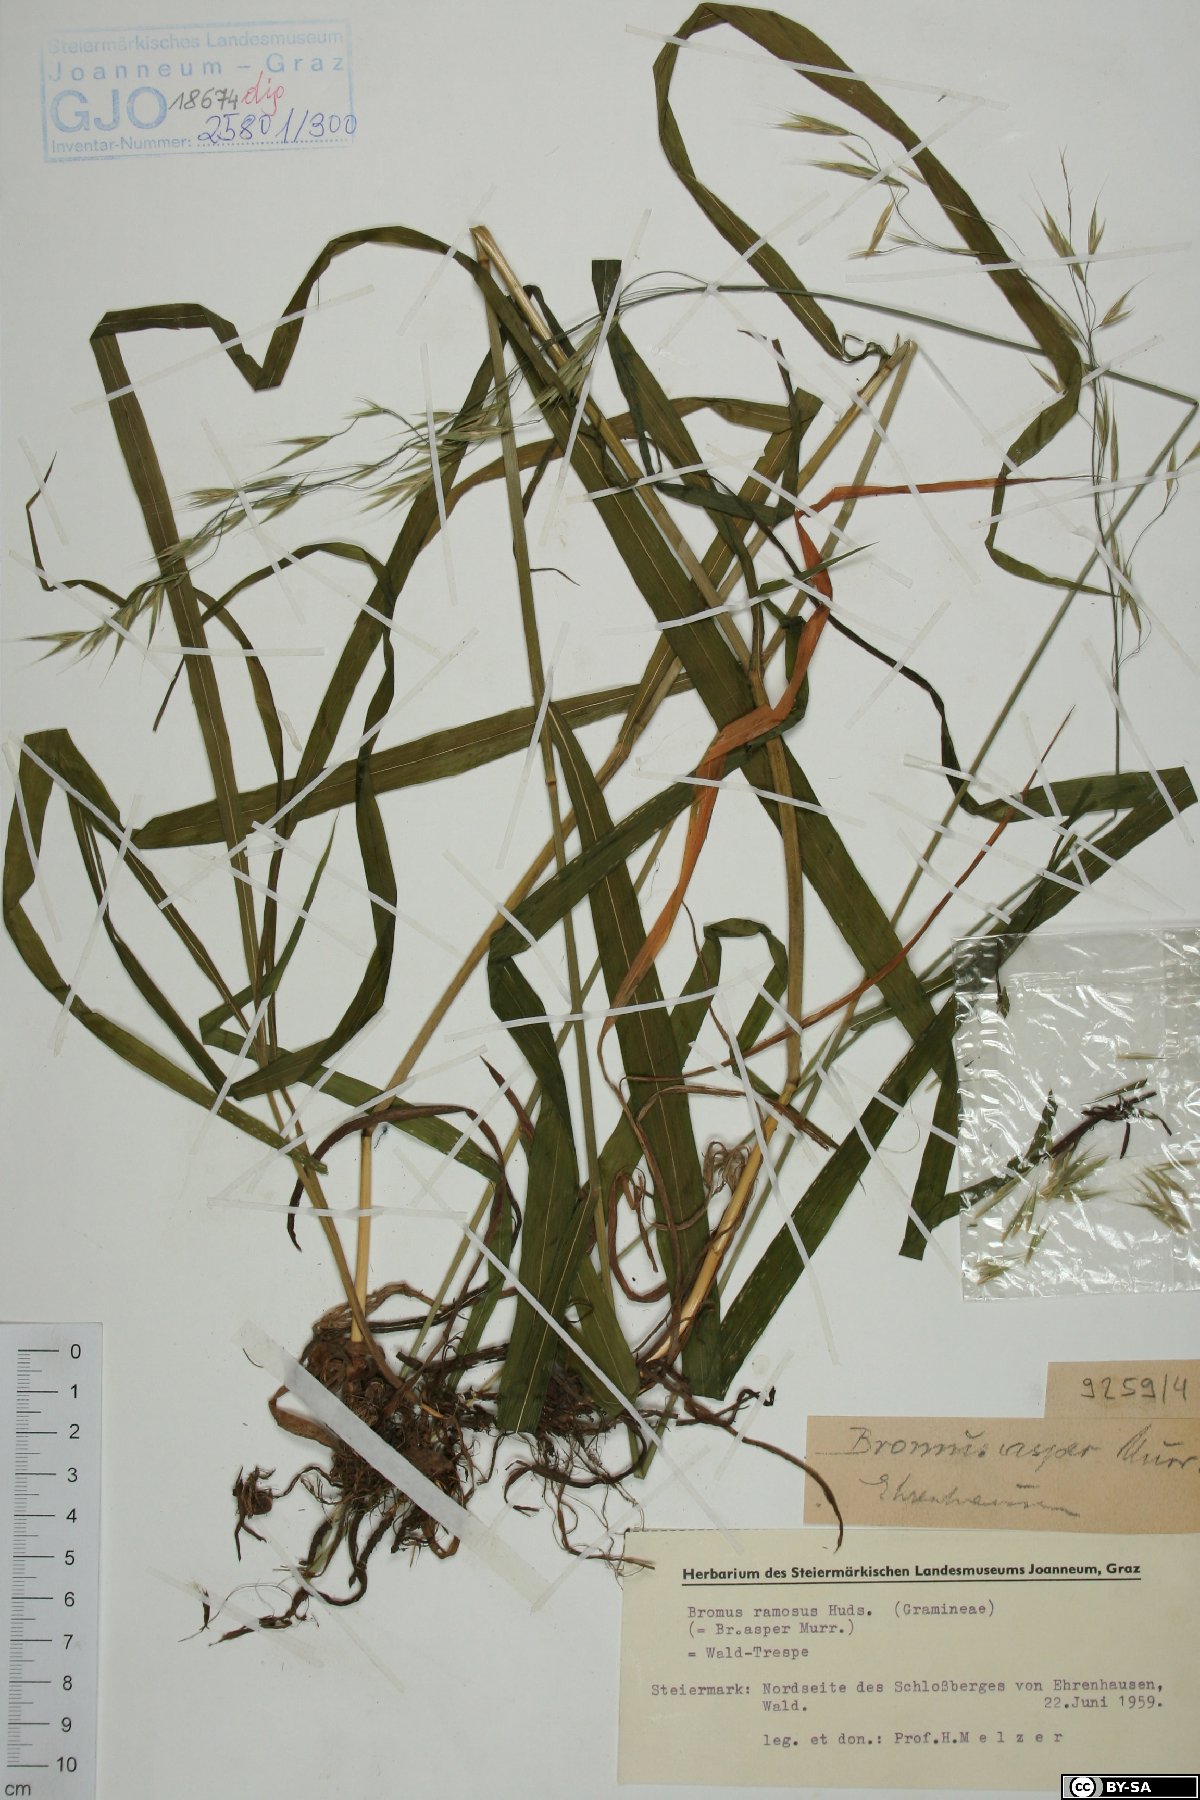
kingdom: Plantae
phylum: Tracheophyta
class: Liliopsida
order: Poales
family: Poaceae
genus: Bromus
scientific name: Bromus ramosus
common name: Hairy brome
